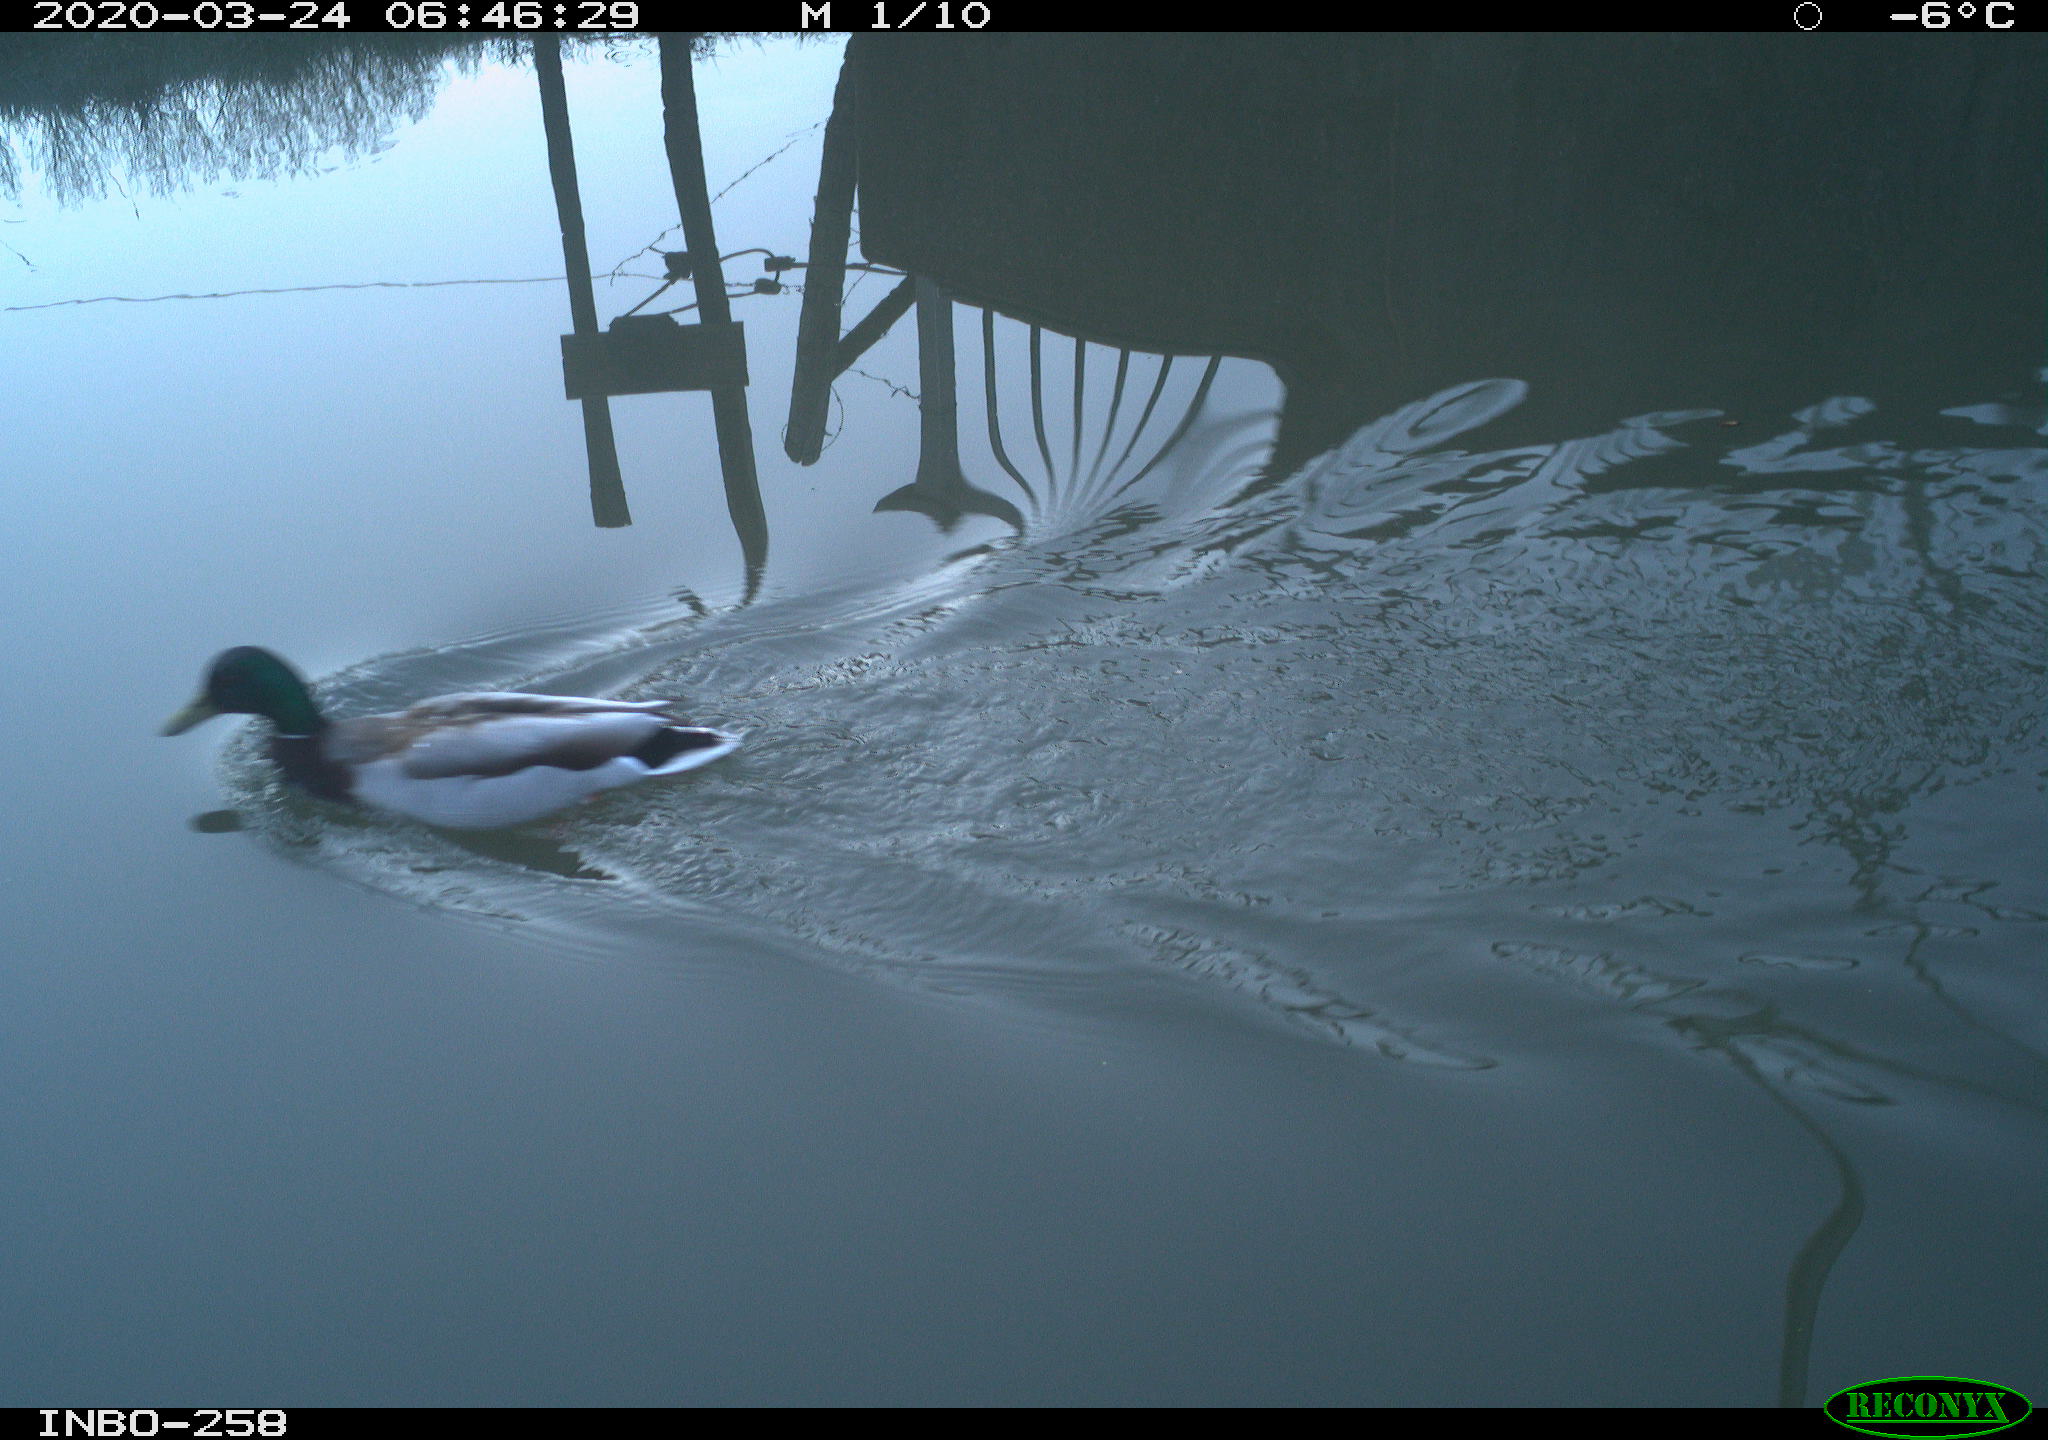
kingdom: Animalia
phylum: Chordata
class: Aves
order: Anseriformes
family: Anatidae
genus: Anas
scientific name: Anas platyrhynchos
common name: Mallard
